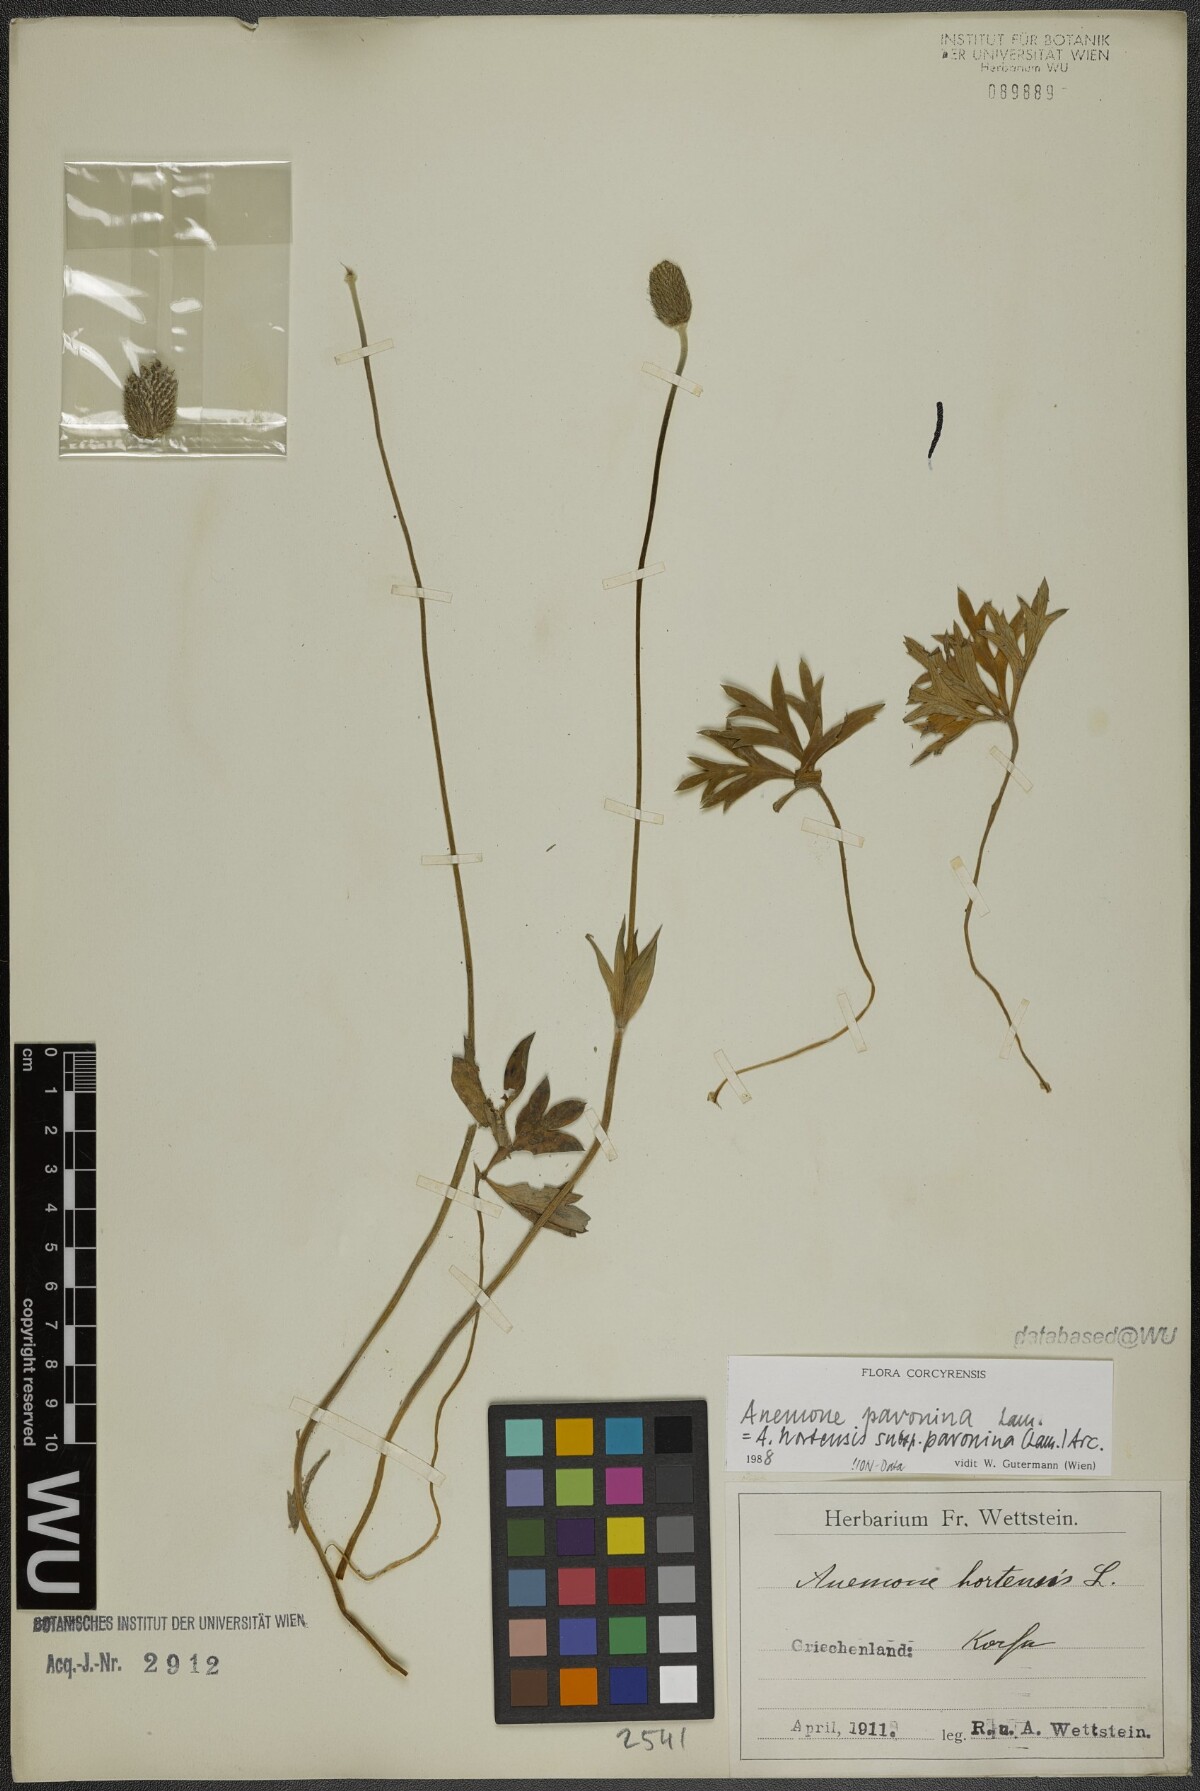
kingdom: Plantae
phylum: Tracheophyta
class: Magnoliopsida
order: Ranunculales
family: Ranunculaceae
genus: Anemone
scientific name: Anemone pavonina
